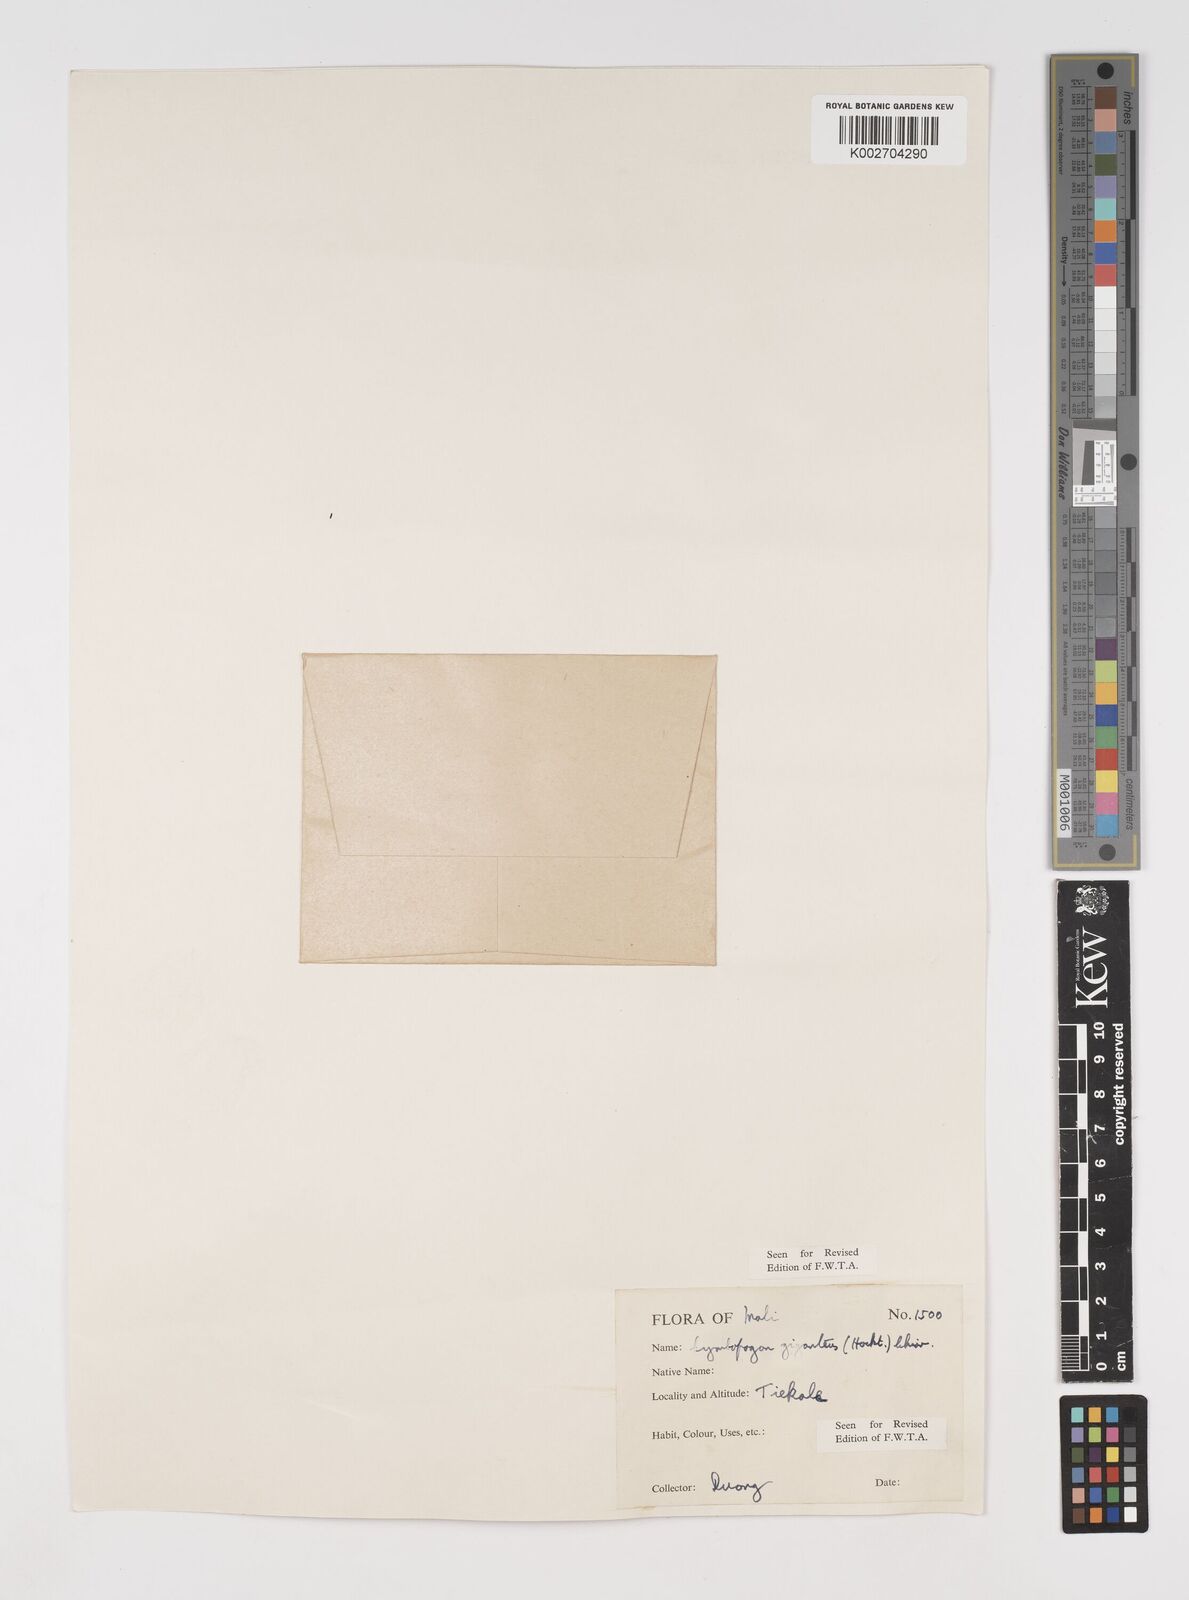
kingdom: Plantae
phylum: Tracheophyta
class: Liliopsida
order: Poales
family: Poaceae
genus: Cymbopogon
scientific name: Cymbopogon giganteus
